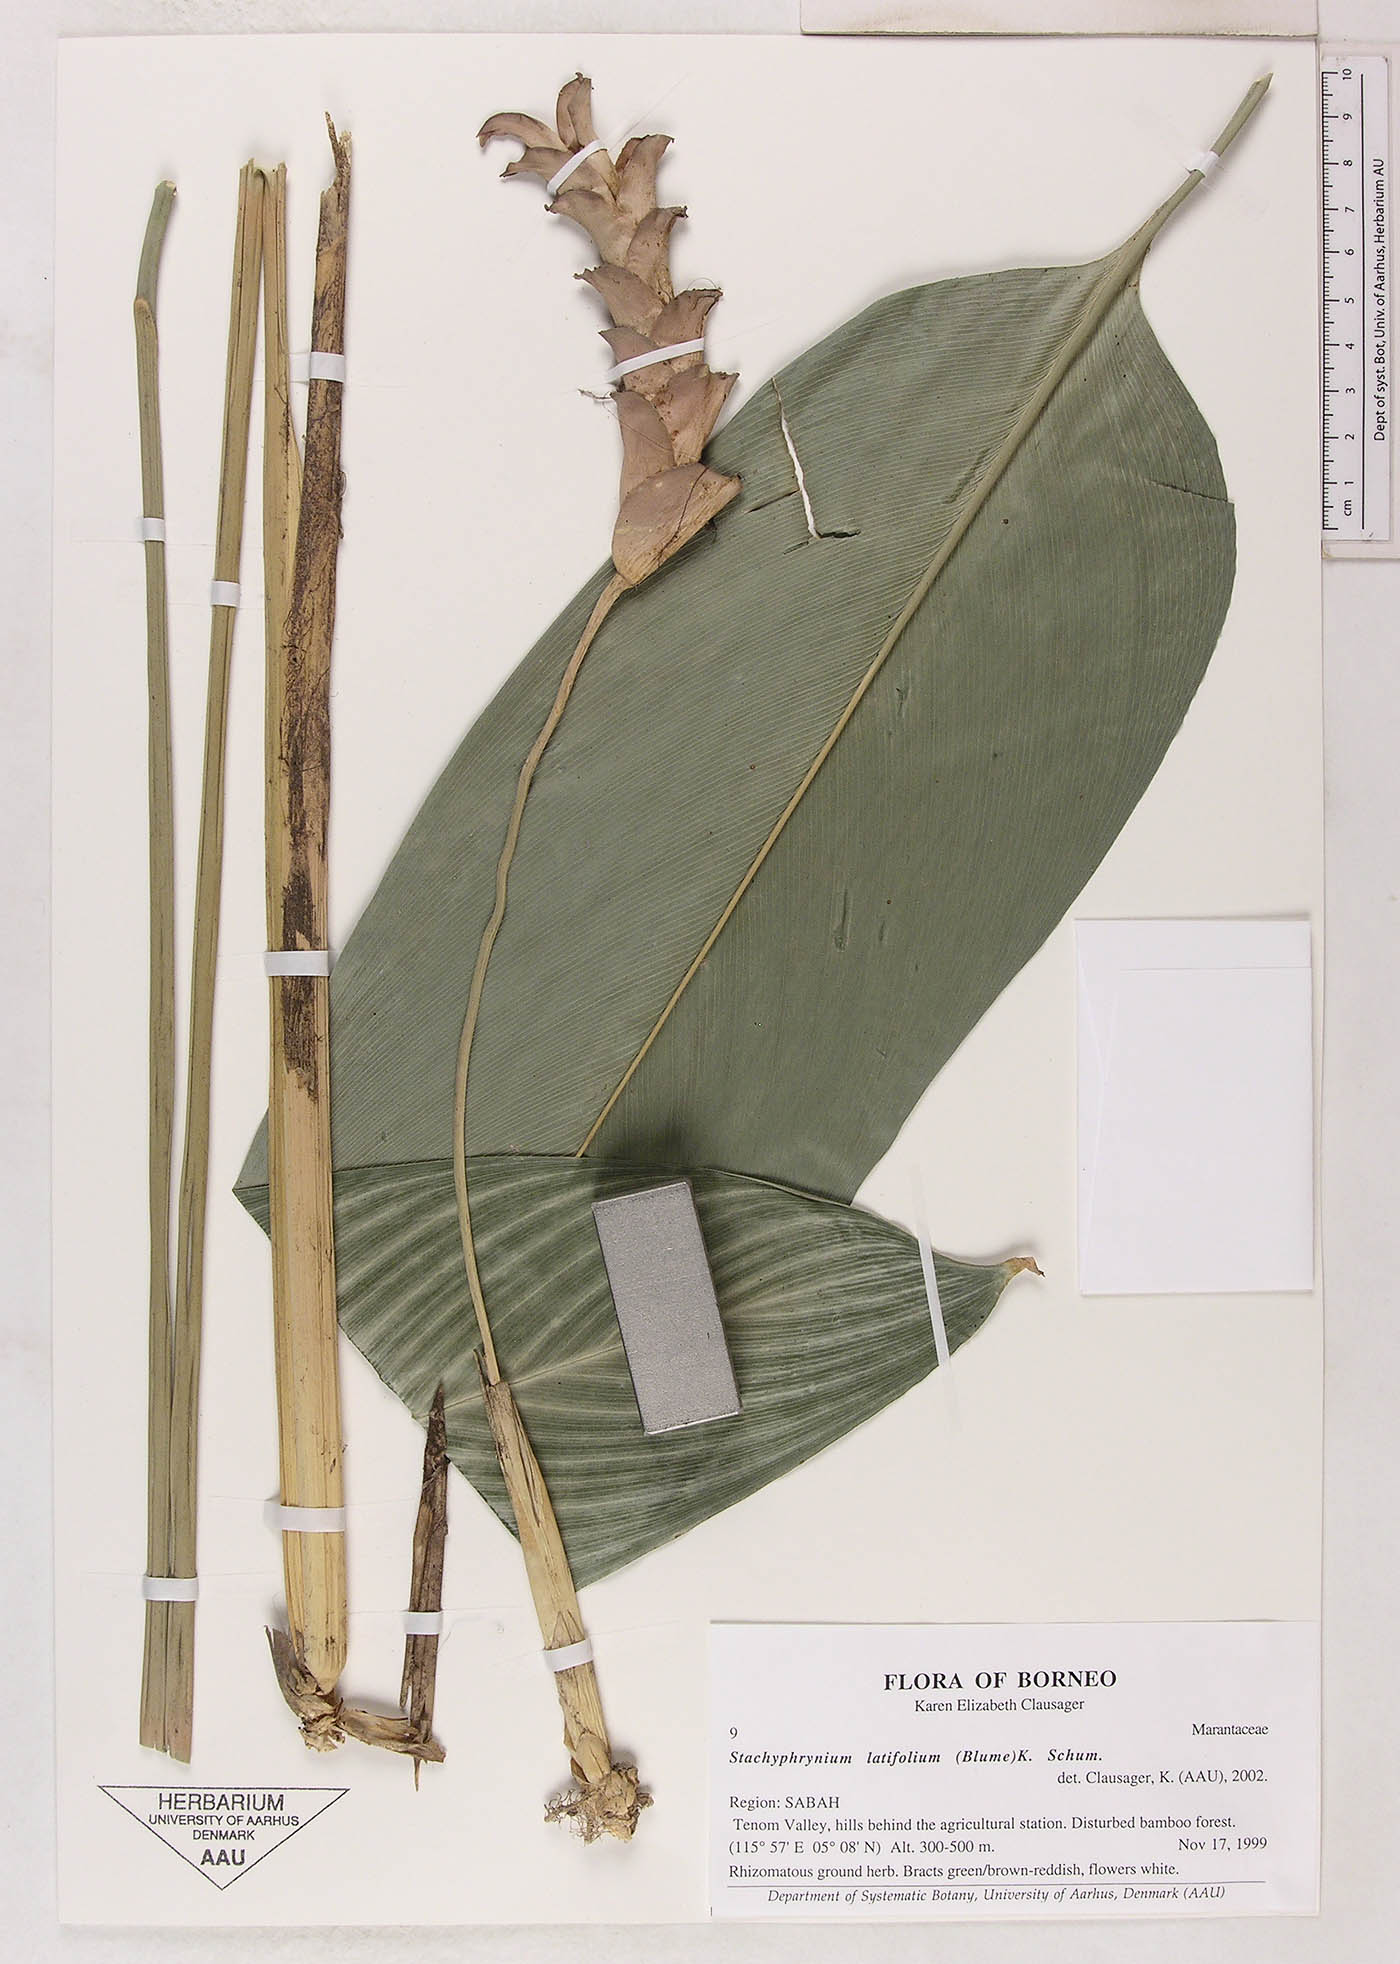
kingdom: Plantae
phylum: Tracheophyta
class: Liliopsida
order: Zingiberales
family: Marantaceae
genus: Stachyphrynium
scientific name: Stachyphrynium latifolium
